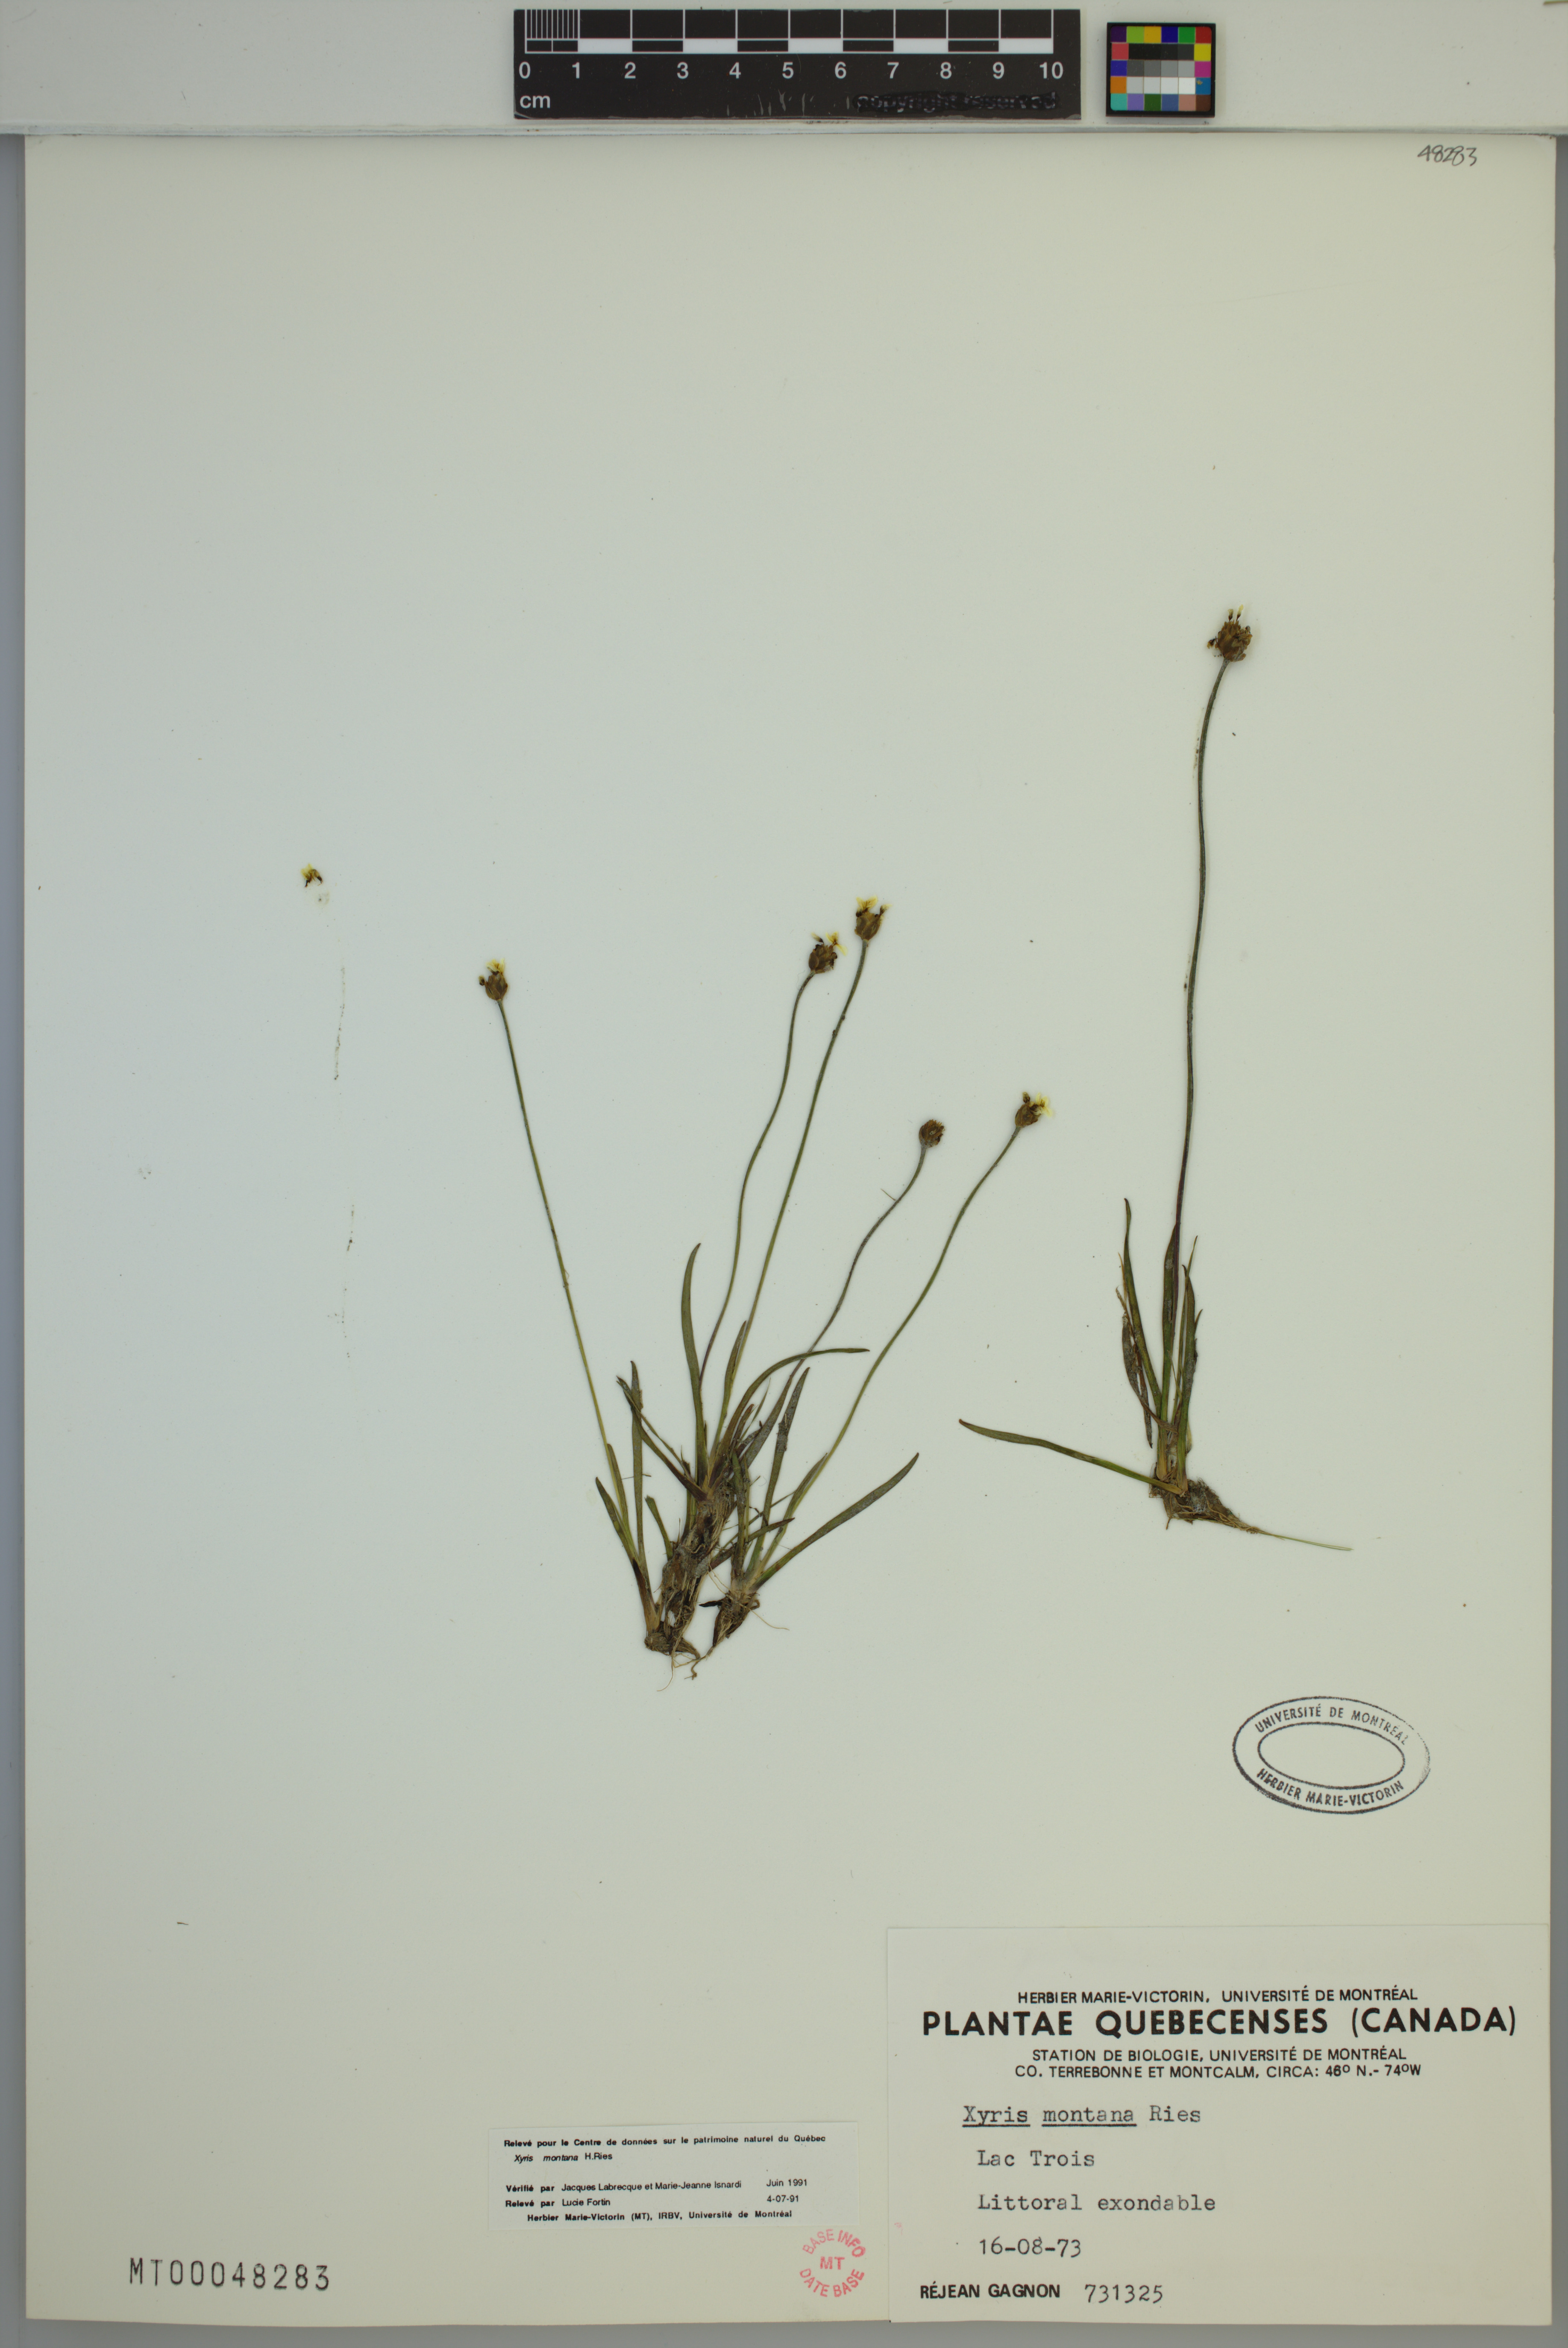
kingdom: Plantae
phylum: Tracheophyta
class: Liliopsida
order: Poales
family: Xyridaceae
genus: Xyris
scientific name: Xyris montana
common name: Northern yellow-eyed-grass
